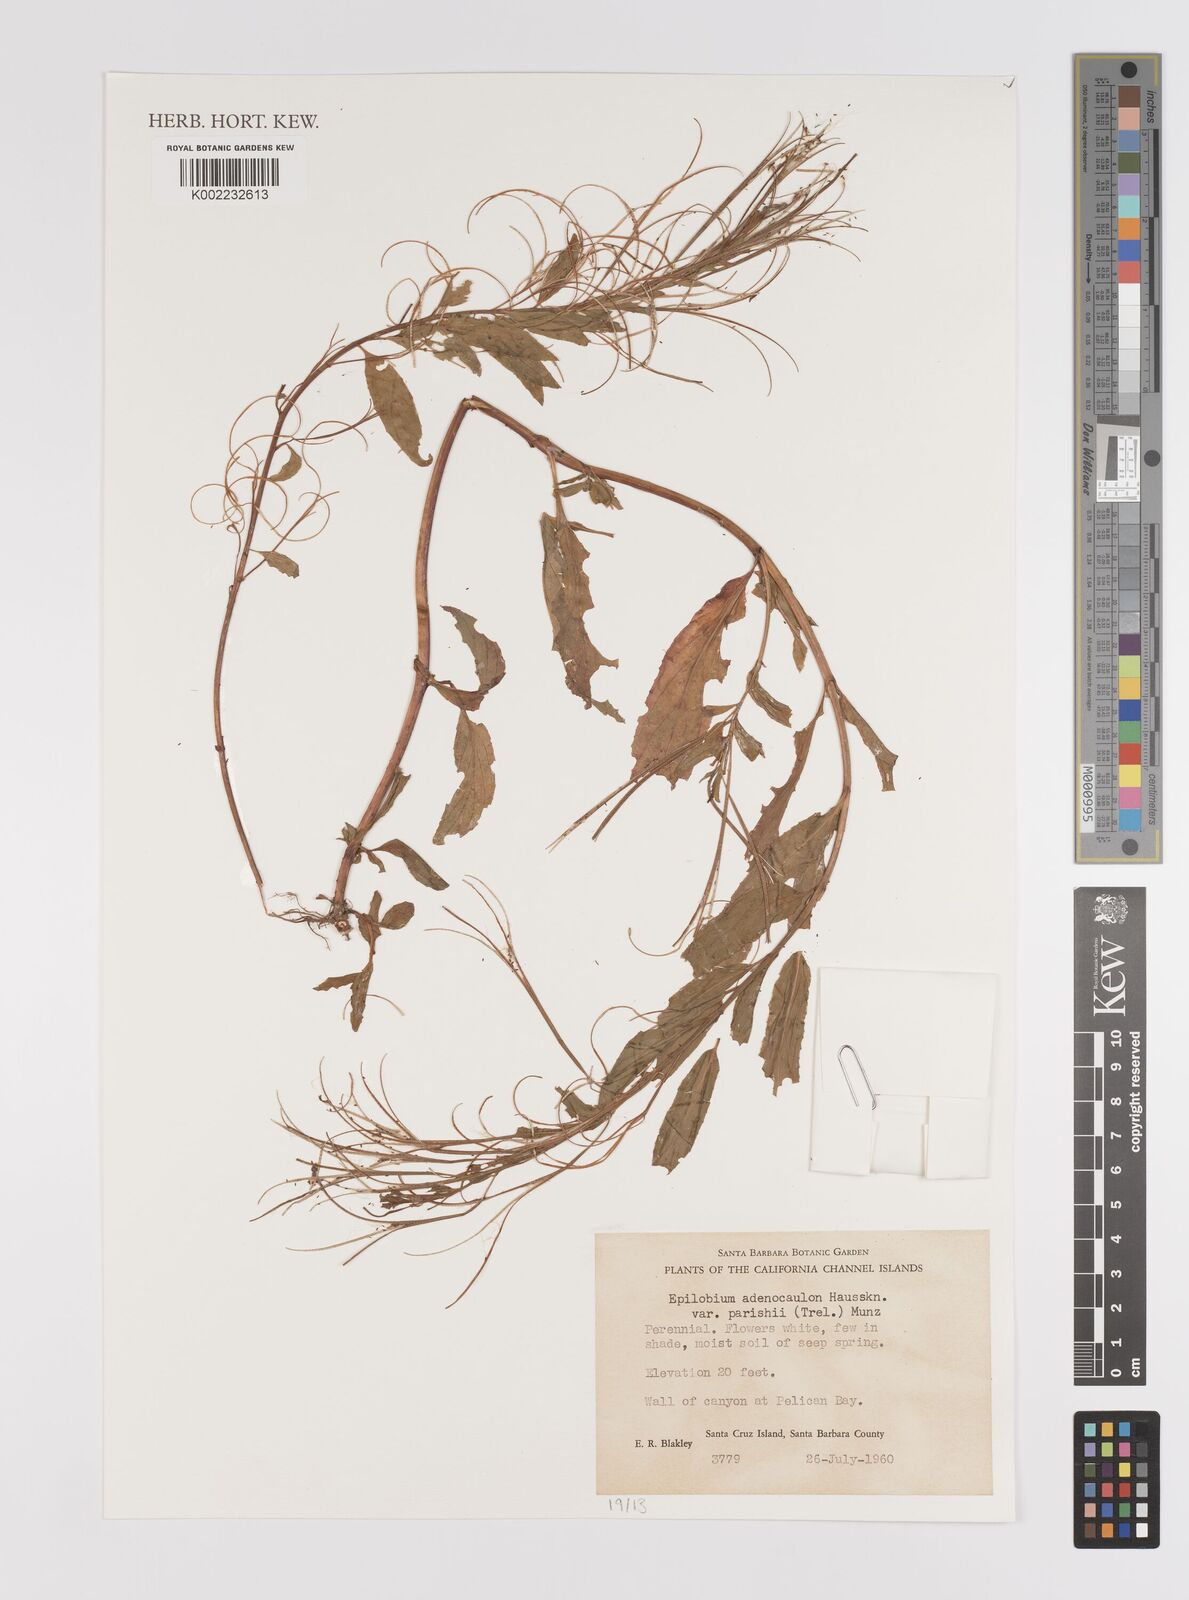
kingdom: Plantae
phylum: Tracheophyta
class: Magnoliopsida
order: Myrtales
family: Onagraceae
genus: Epilobium
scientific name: Epilobium ciliatum
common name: American willowherb
